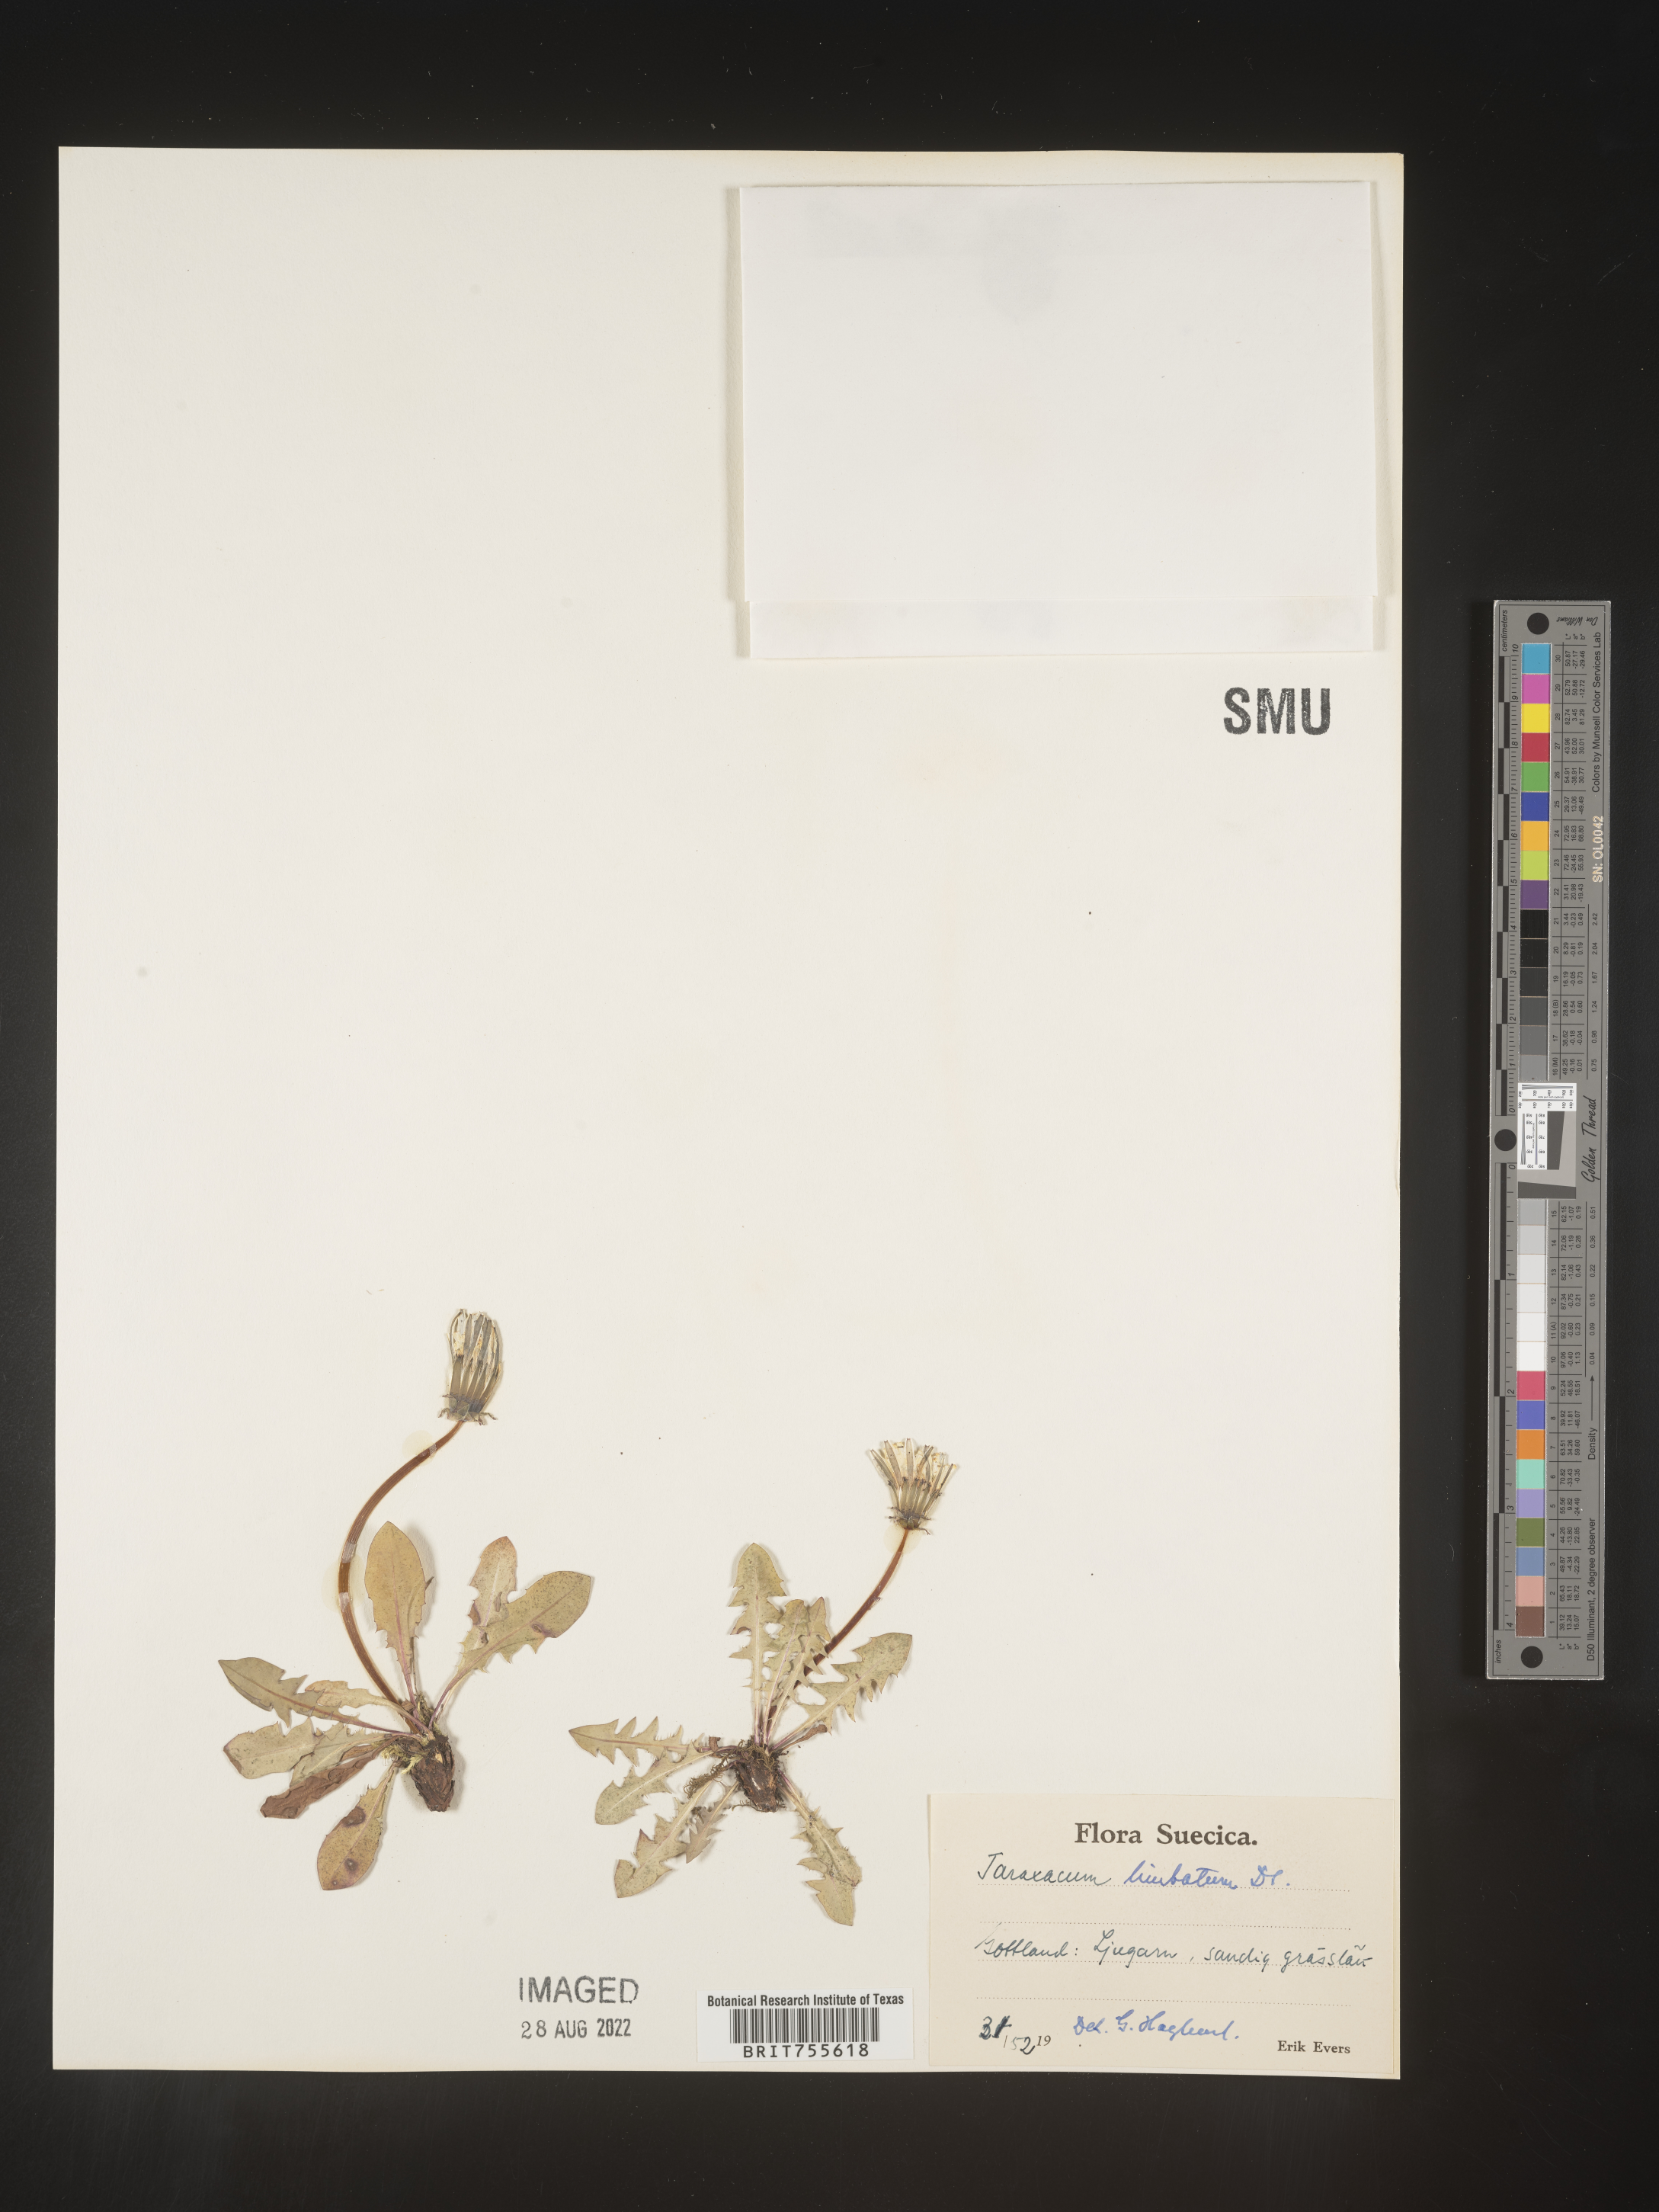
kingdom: Plantae
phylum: Tracheophyta
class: Magnoliopsida
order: Asterales
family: Asteraceae
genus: Taraxacum
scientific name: Taraxacum
